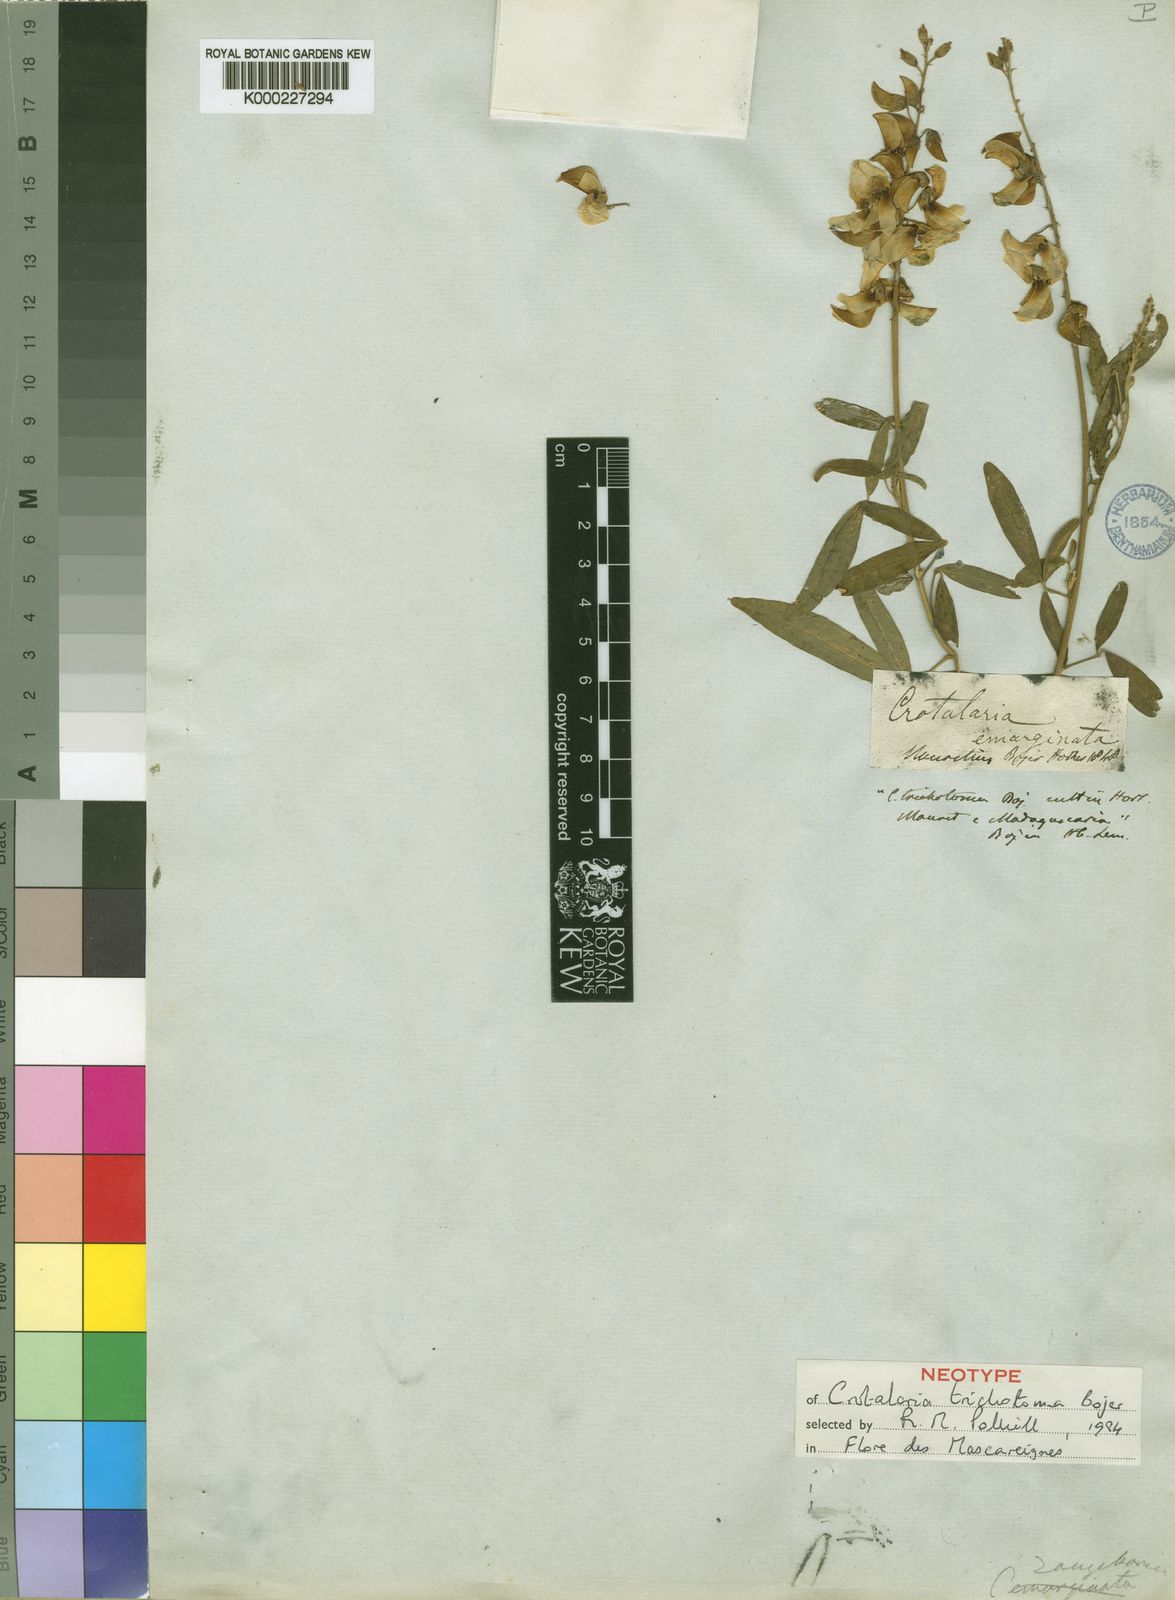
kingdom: Plantae
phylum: Tracheophyta
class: Magnoliopsida
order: Fabales
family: Fabaceae
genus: Crotalaria
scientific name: Crotalaria trichotoma
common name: West indian rattlebox
